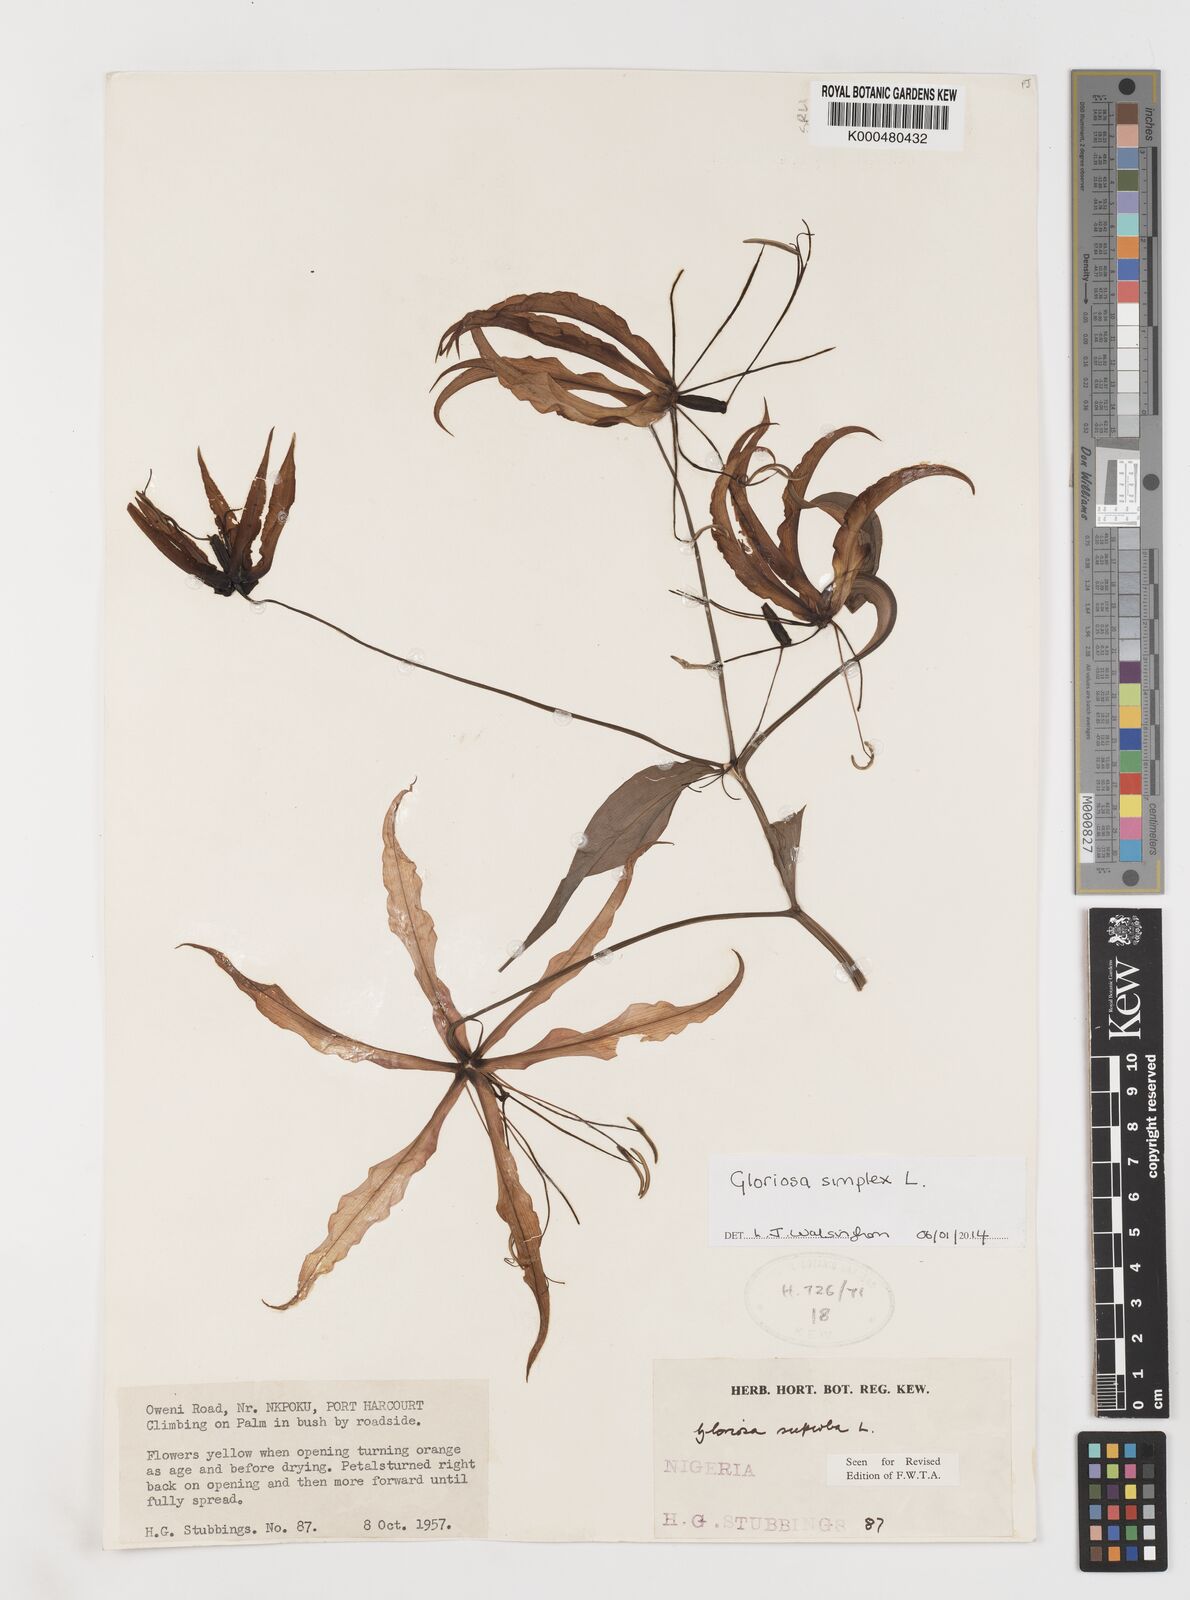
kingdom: Plantae
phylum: Tracheophyta
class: Liliopsida
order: Liliales
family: Colchicaceae
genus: Gloriosa
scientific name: Gloriosa simplex
